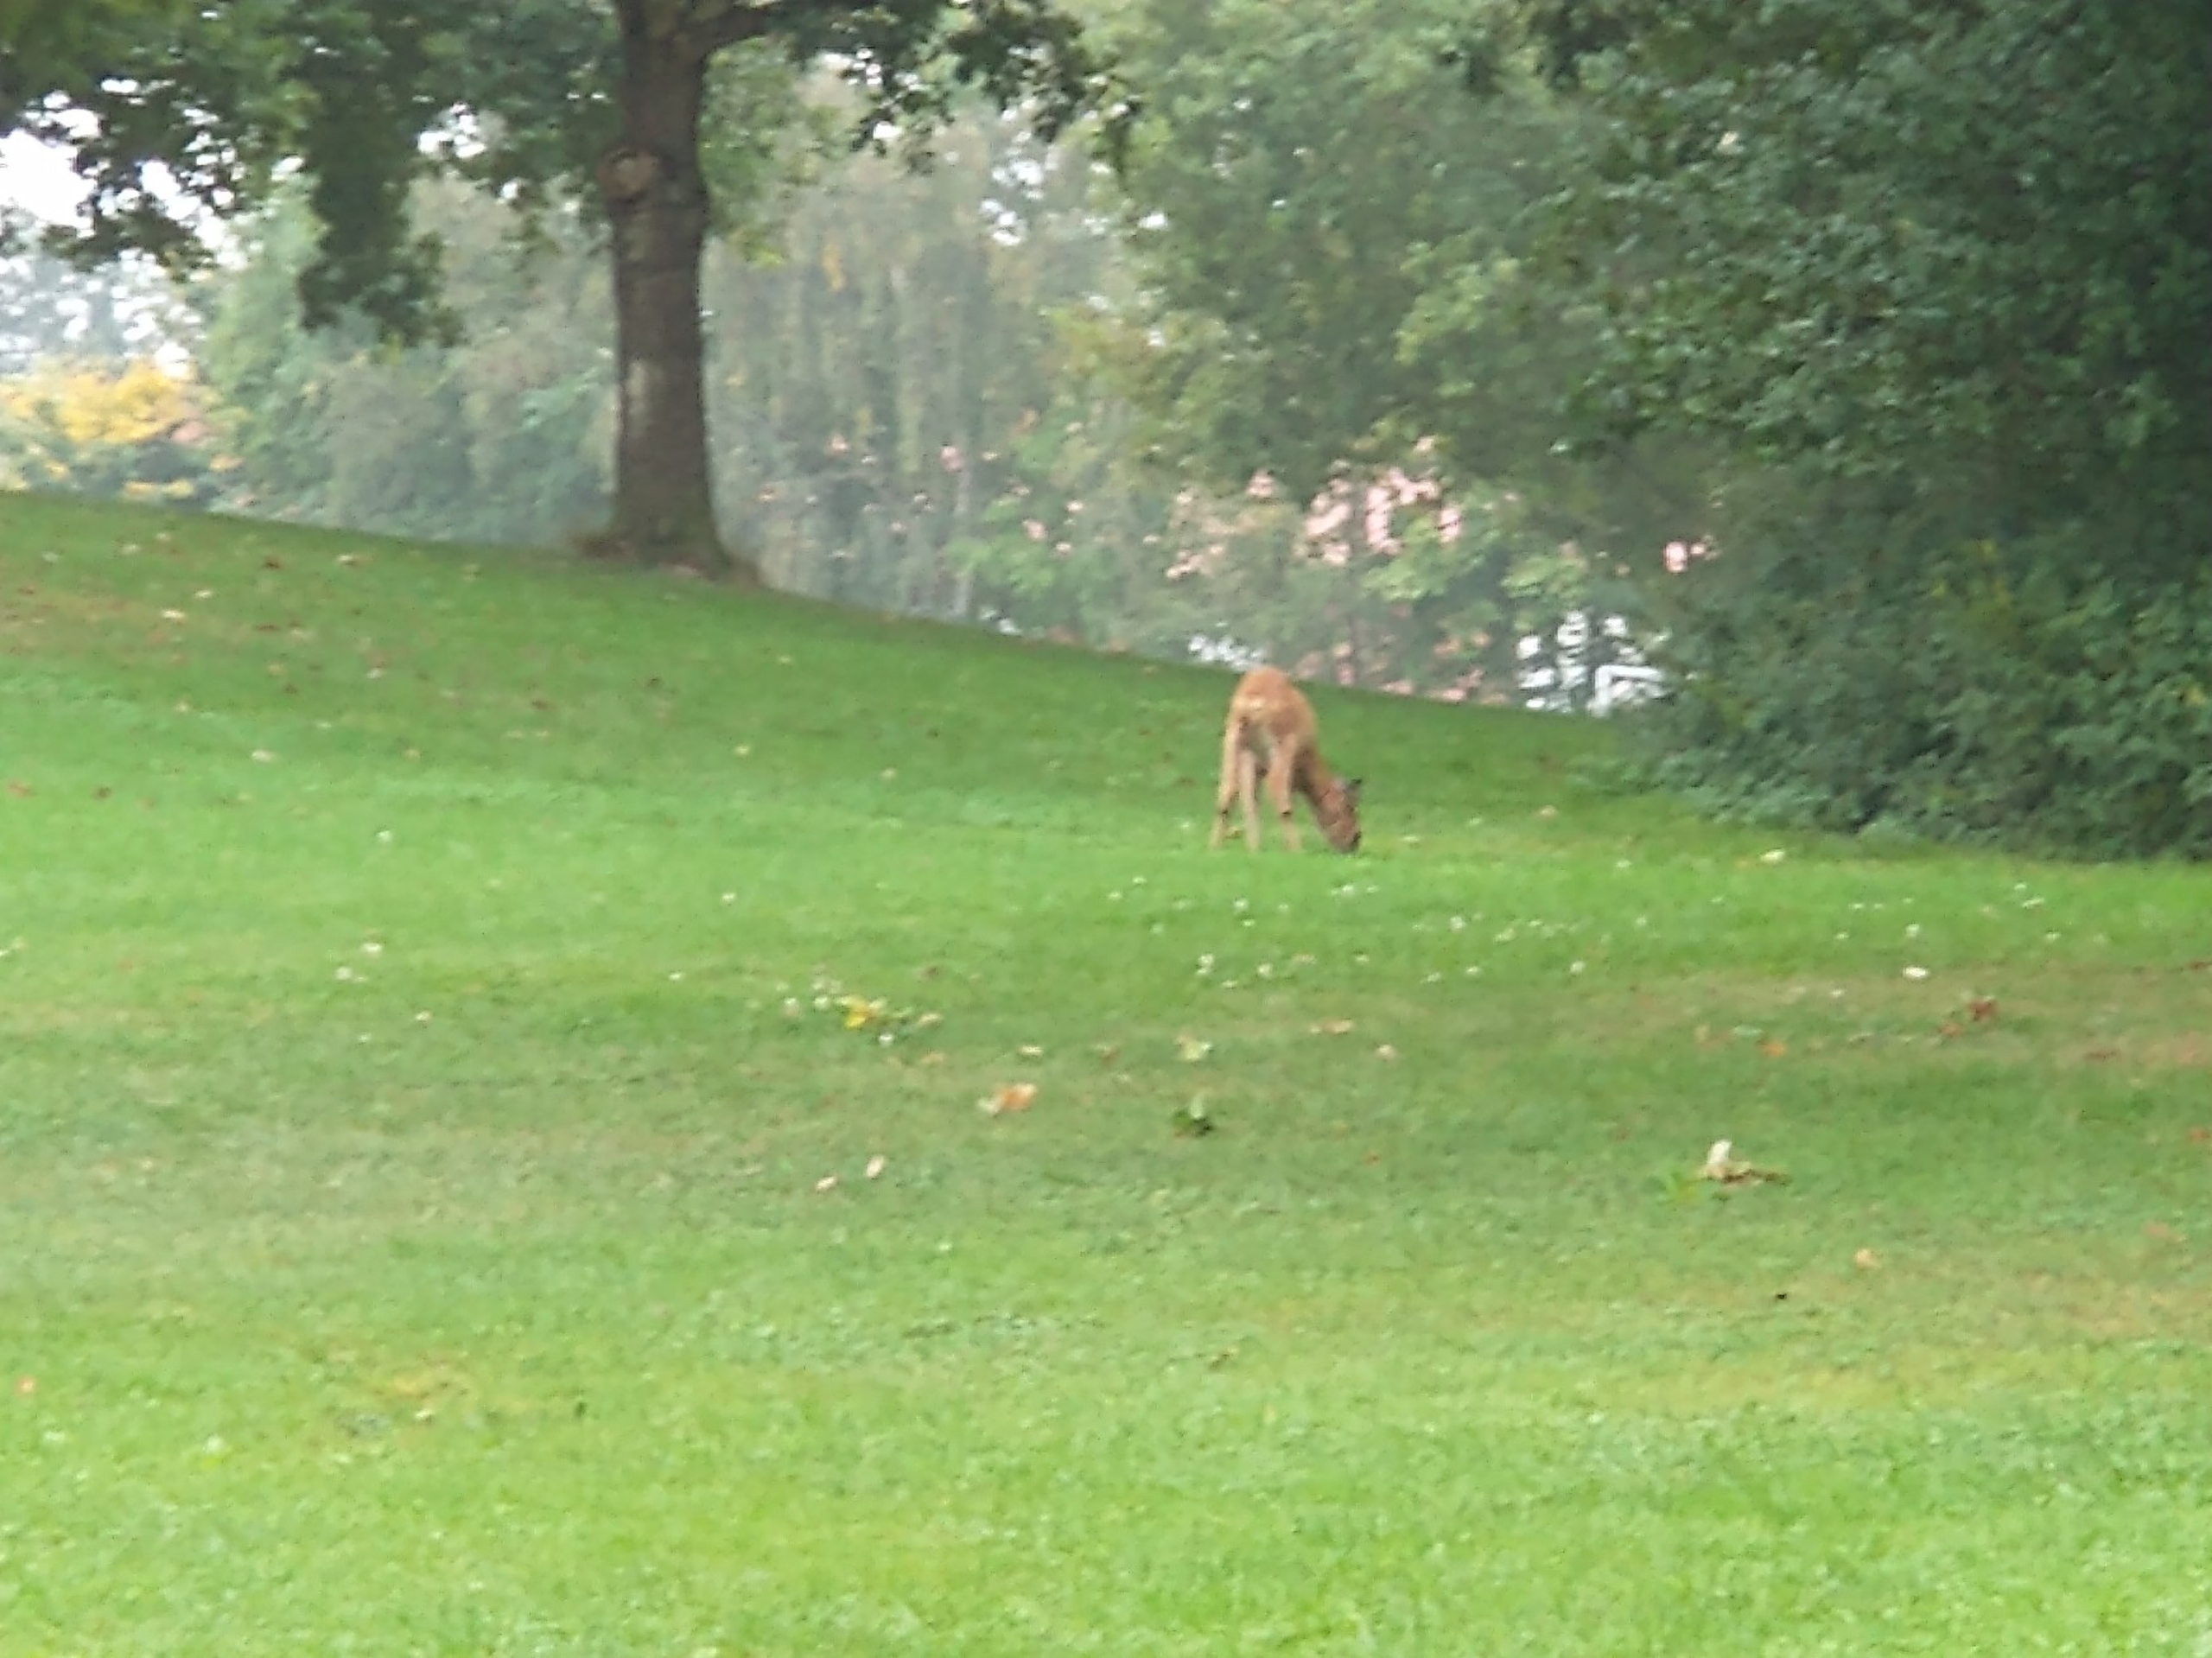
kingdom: Animalia
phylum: Chordata
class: Mammalia
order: Artiodactyla
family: Cervidae
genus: Capreolus
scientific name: Capreolus capreolus
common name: Rådyr
